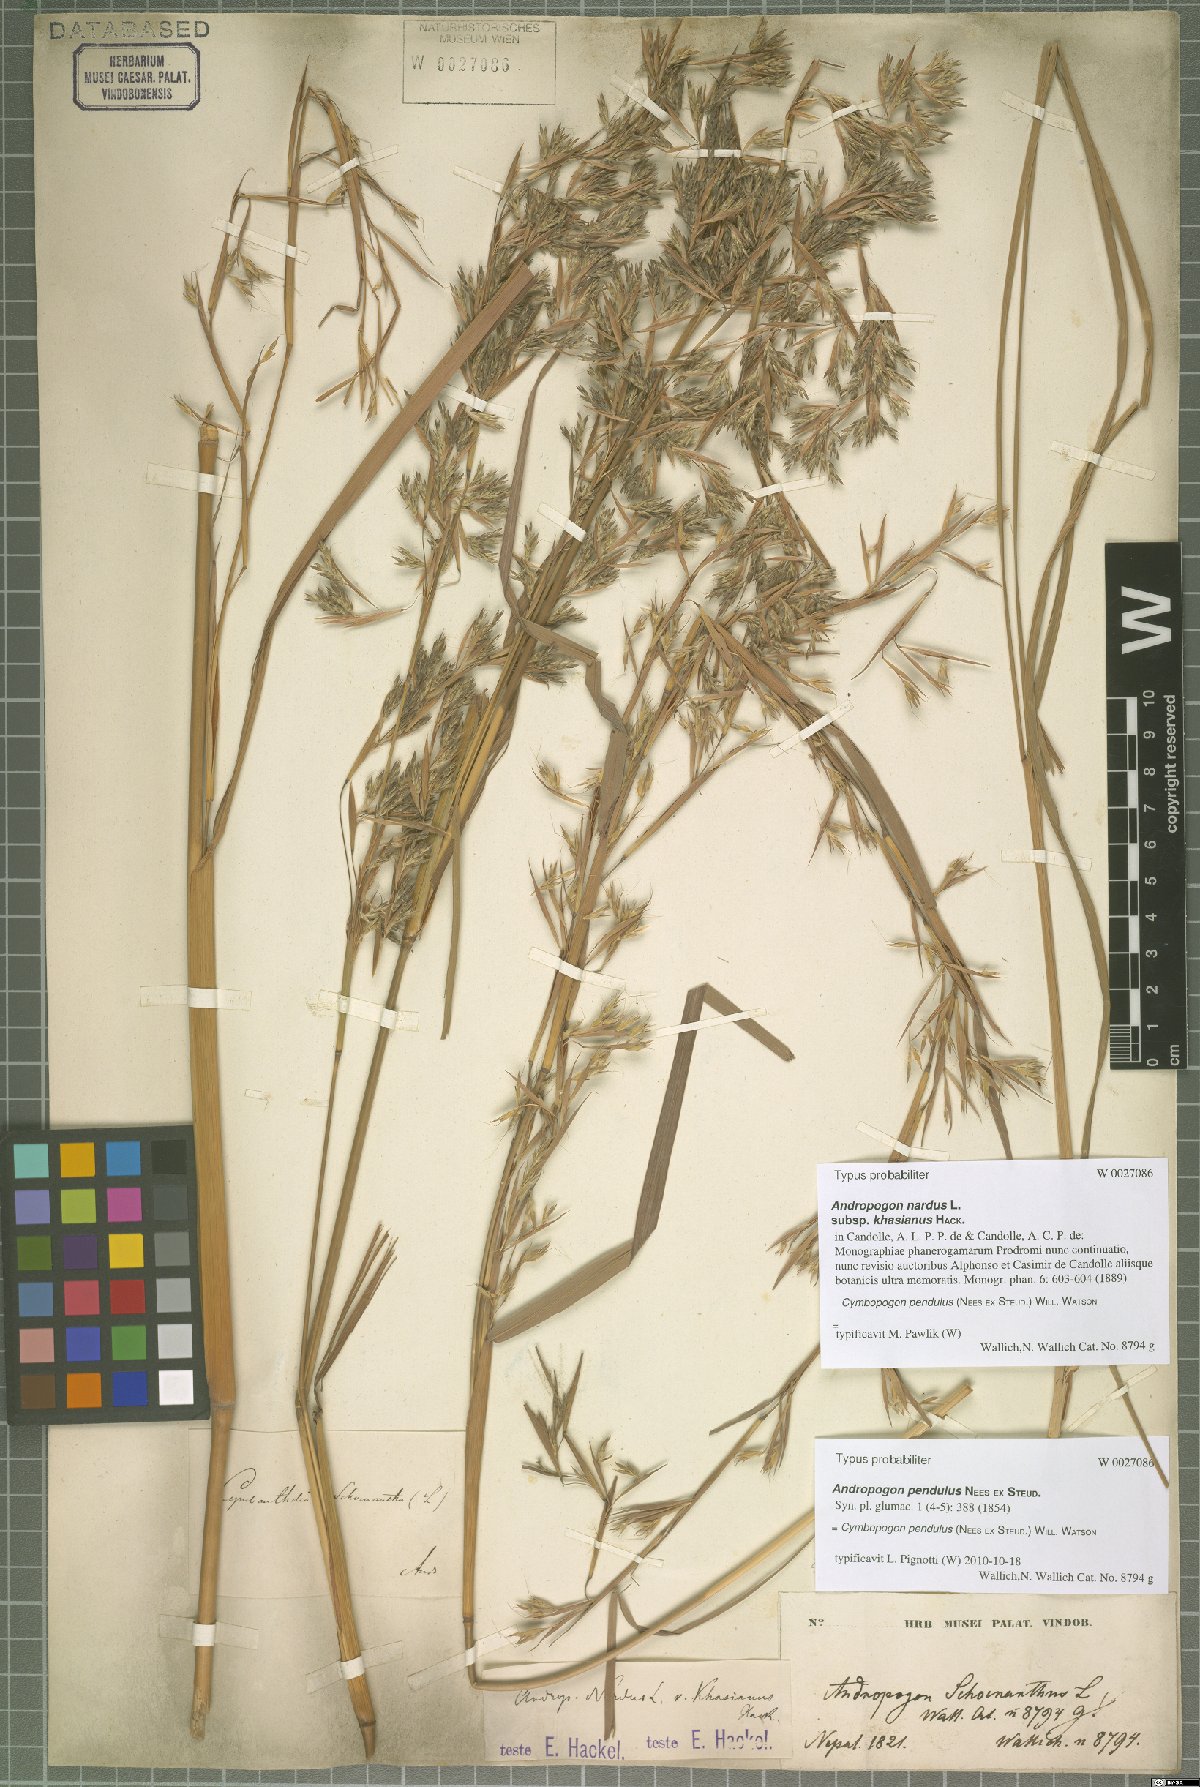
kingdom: Plantae
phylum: Tracheophyta
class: Liliopsida
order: Poales
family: Poaceae
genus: Cymbopogon
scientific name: Cymbopogon pendulus
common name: Jammu lemongrass
